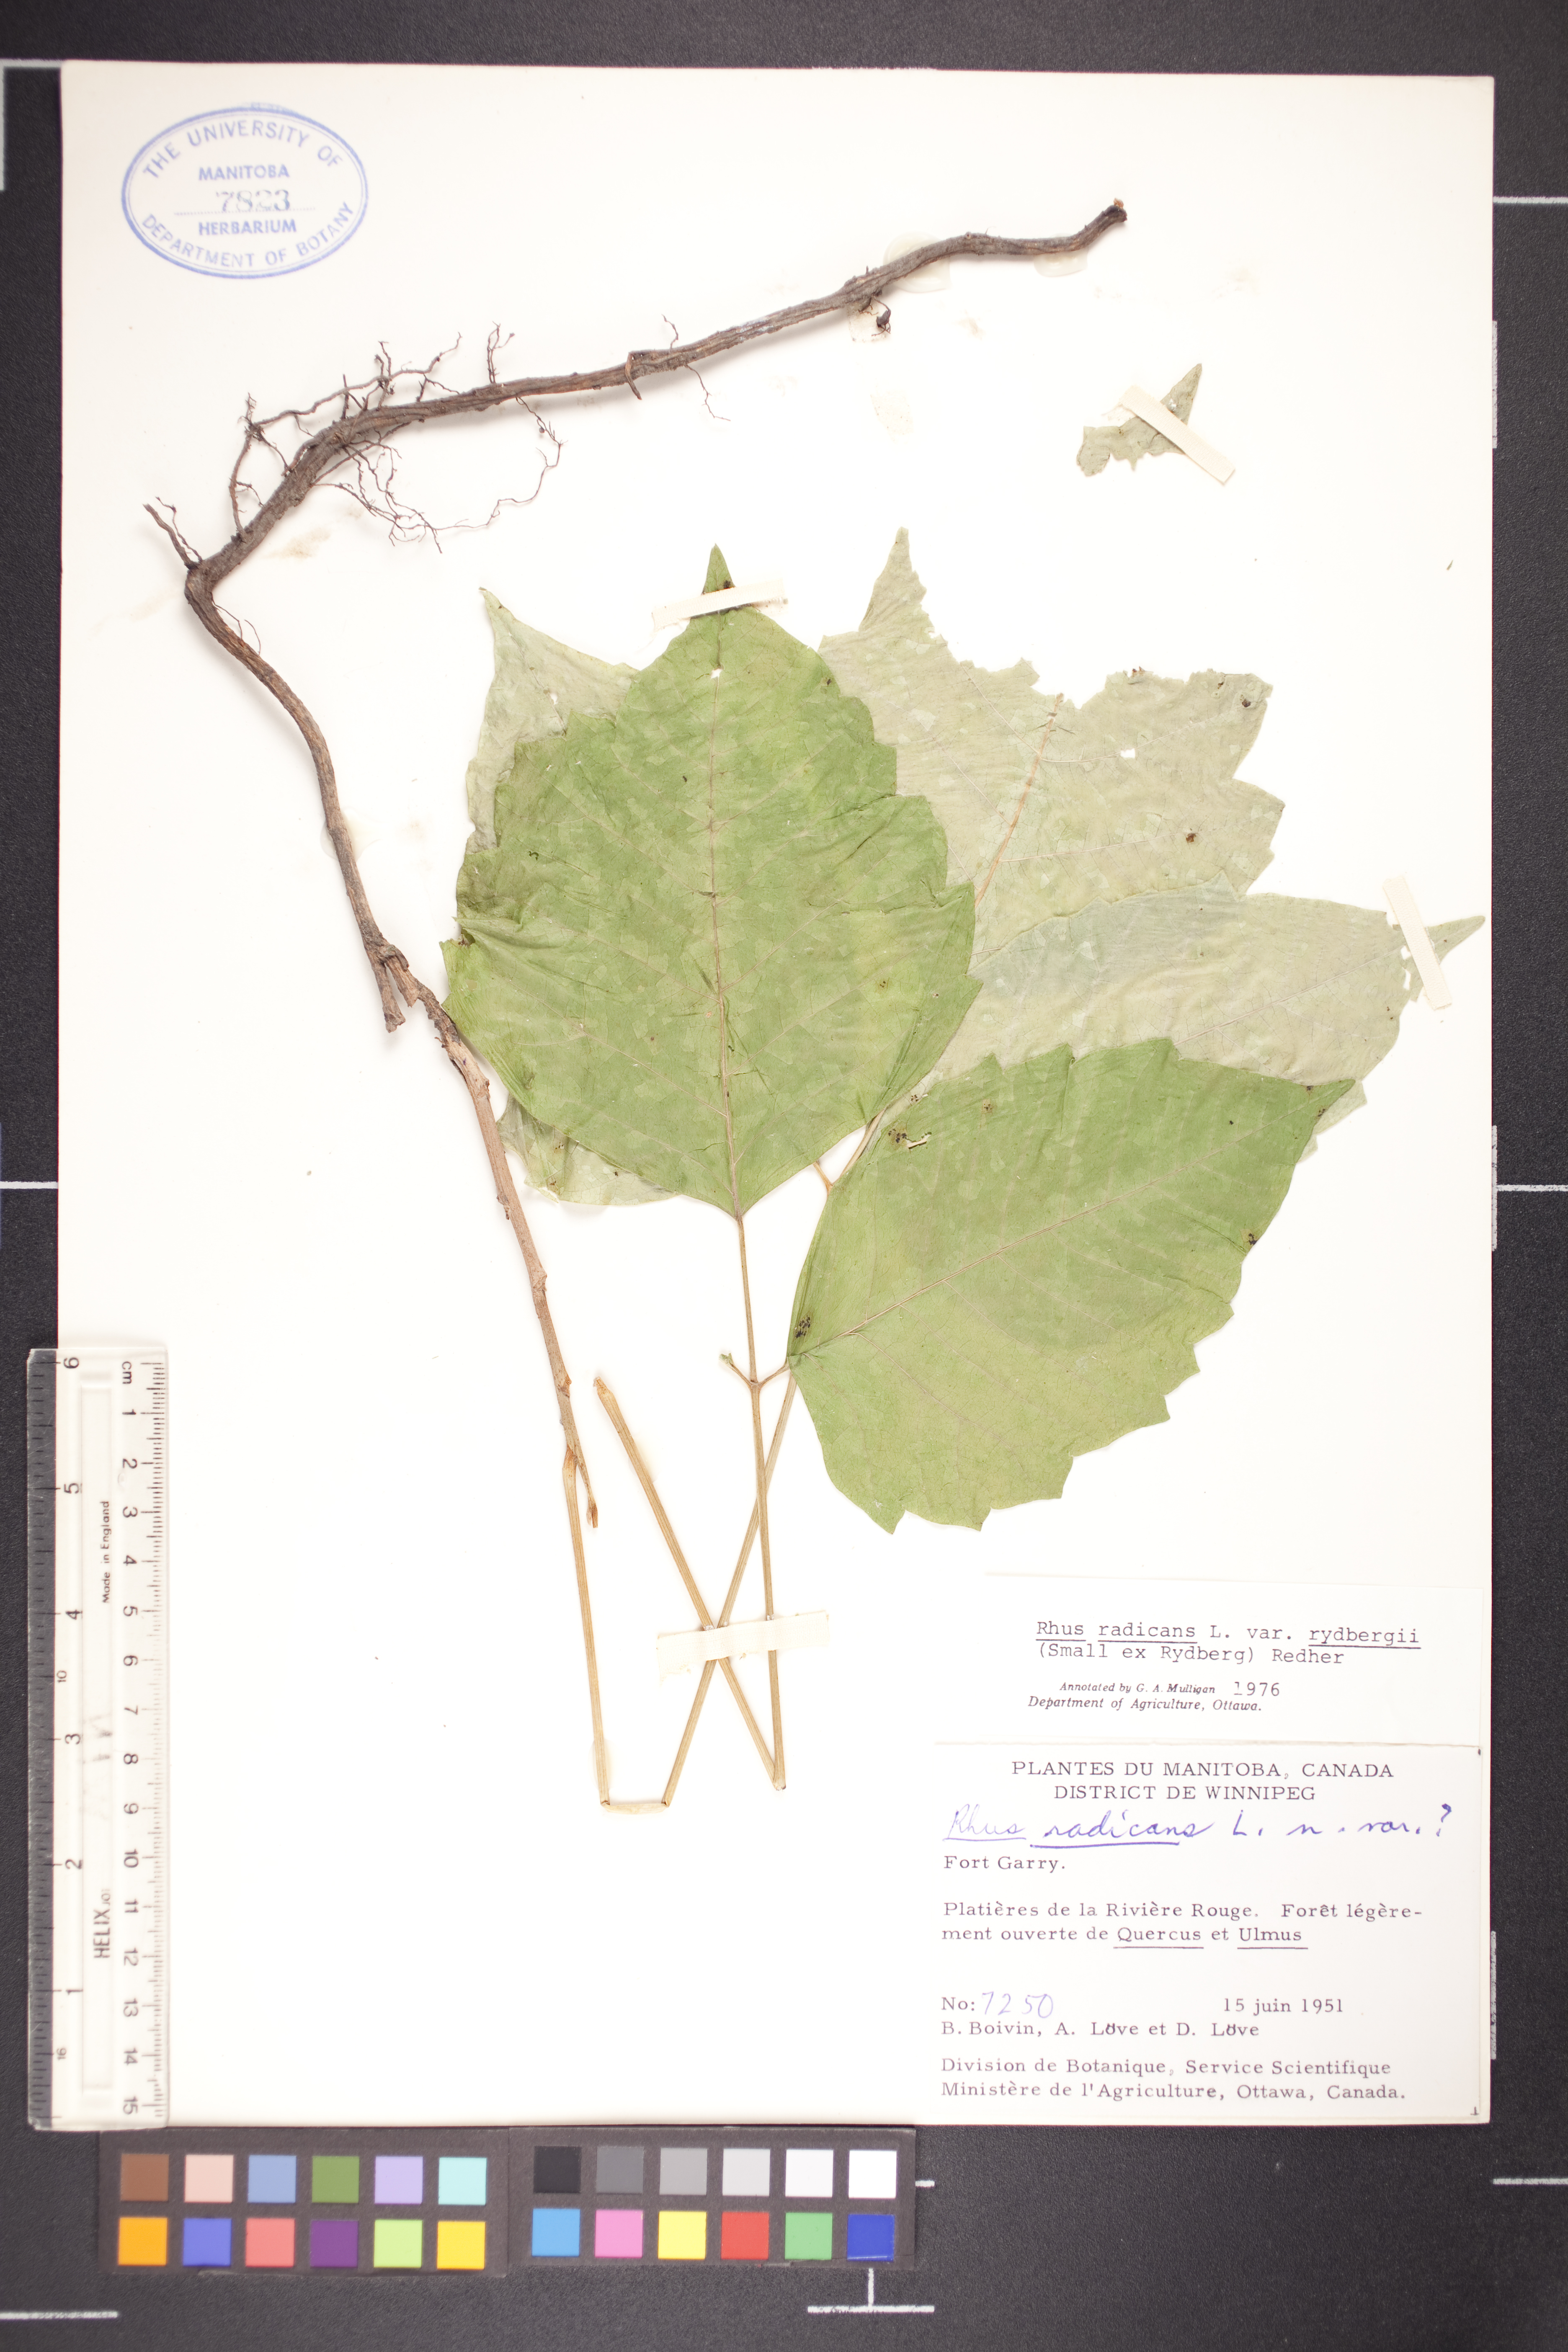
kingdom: Plantae
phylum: Tracheophyta
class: Magnoliopsida
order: Sapindales
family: Anacardiaceae
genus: Toxicodendron
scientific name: Toxicodendron radicans
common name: Poison ivy
